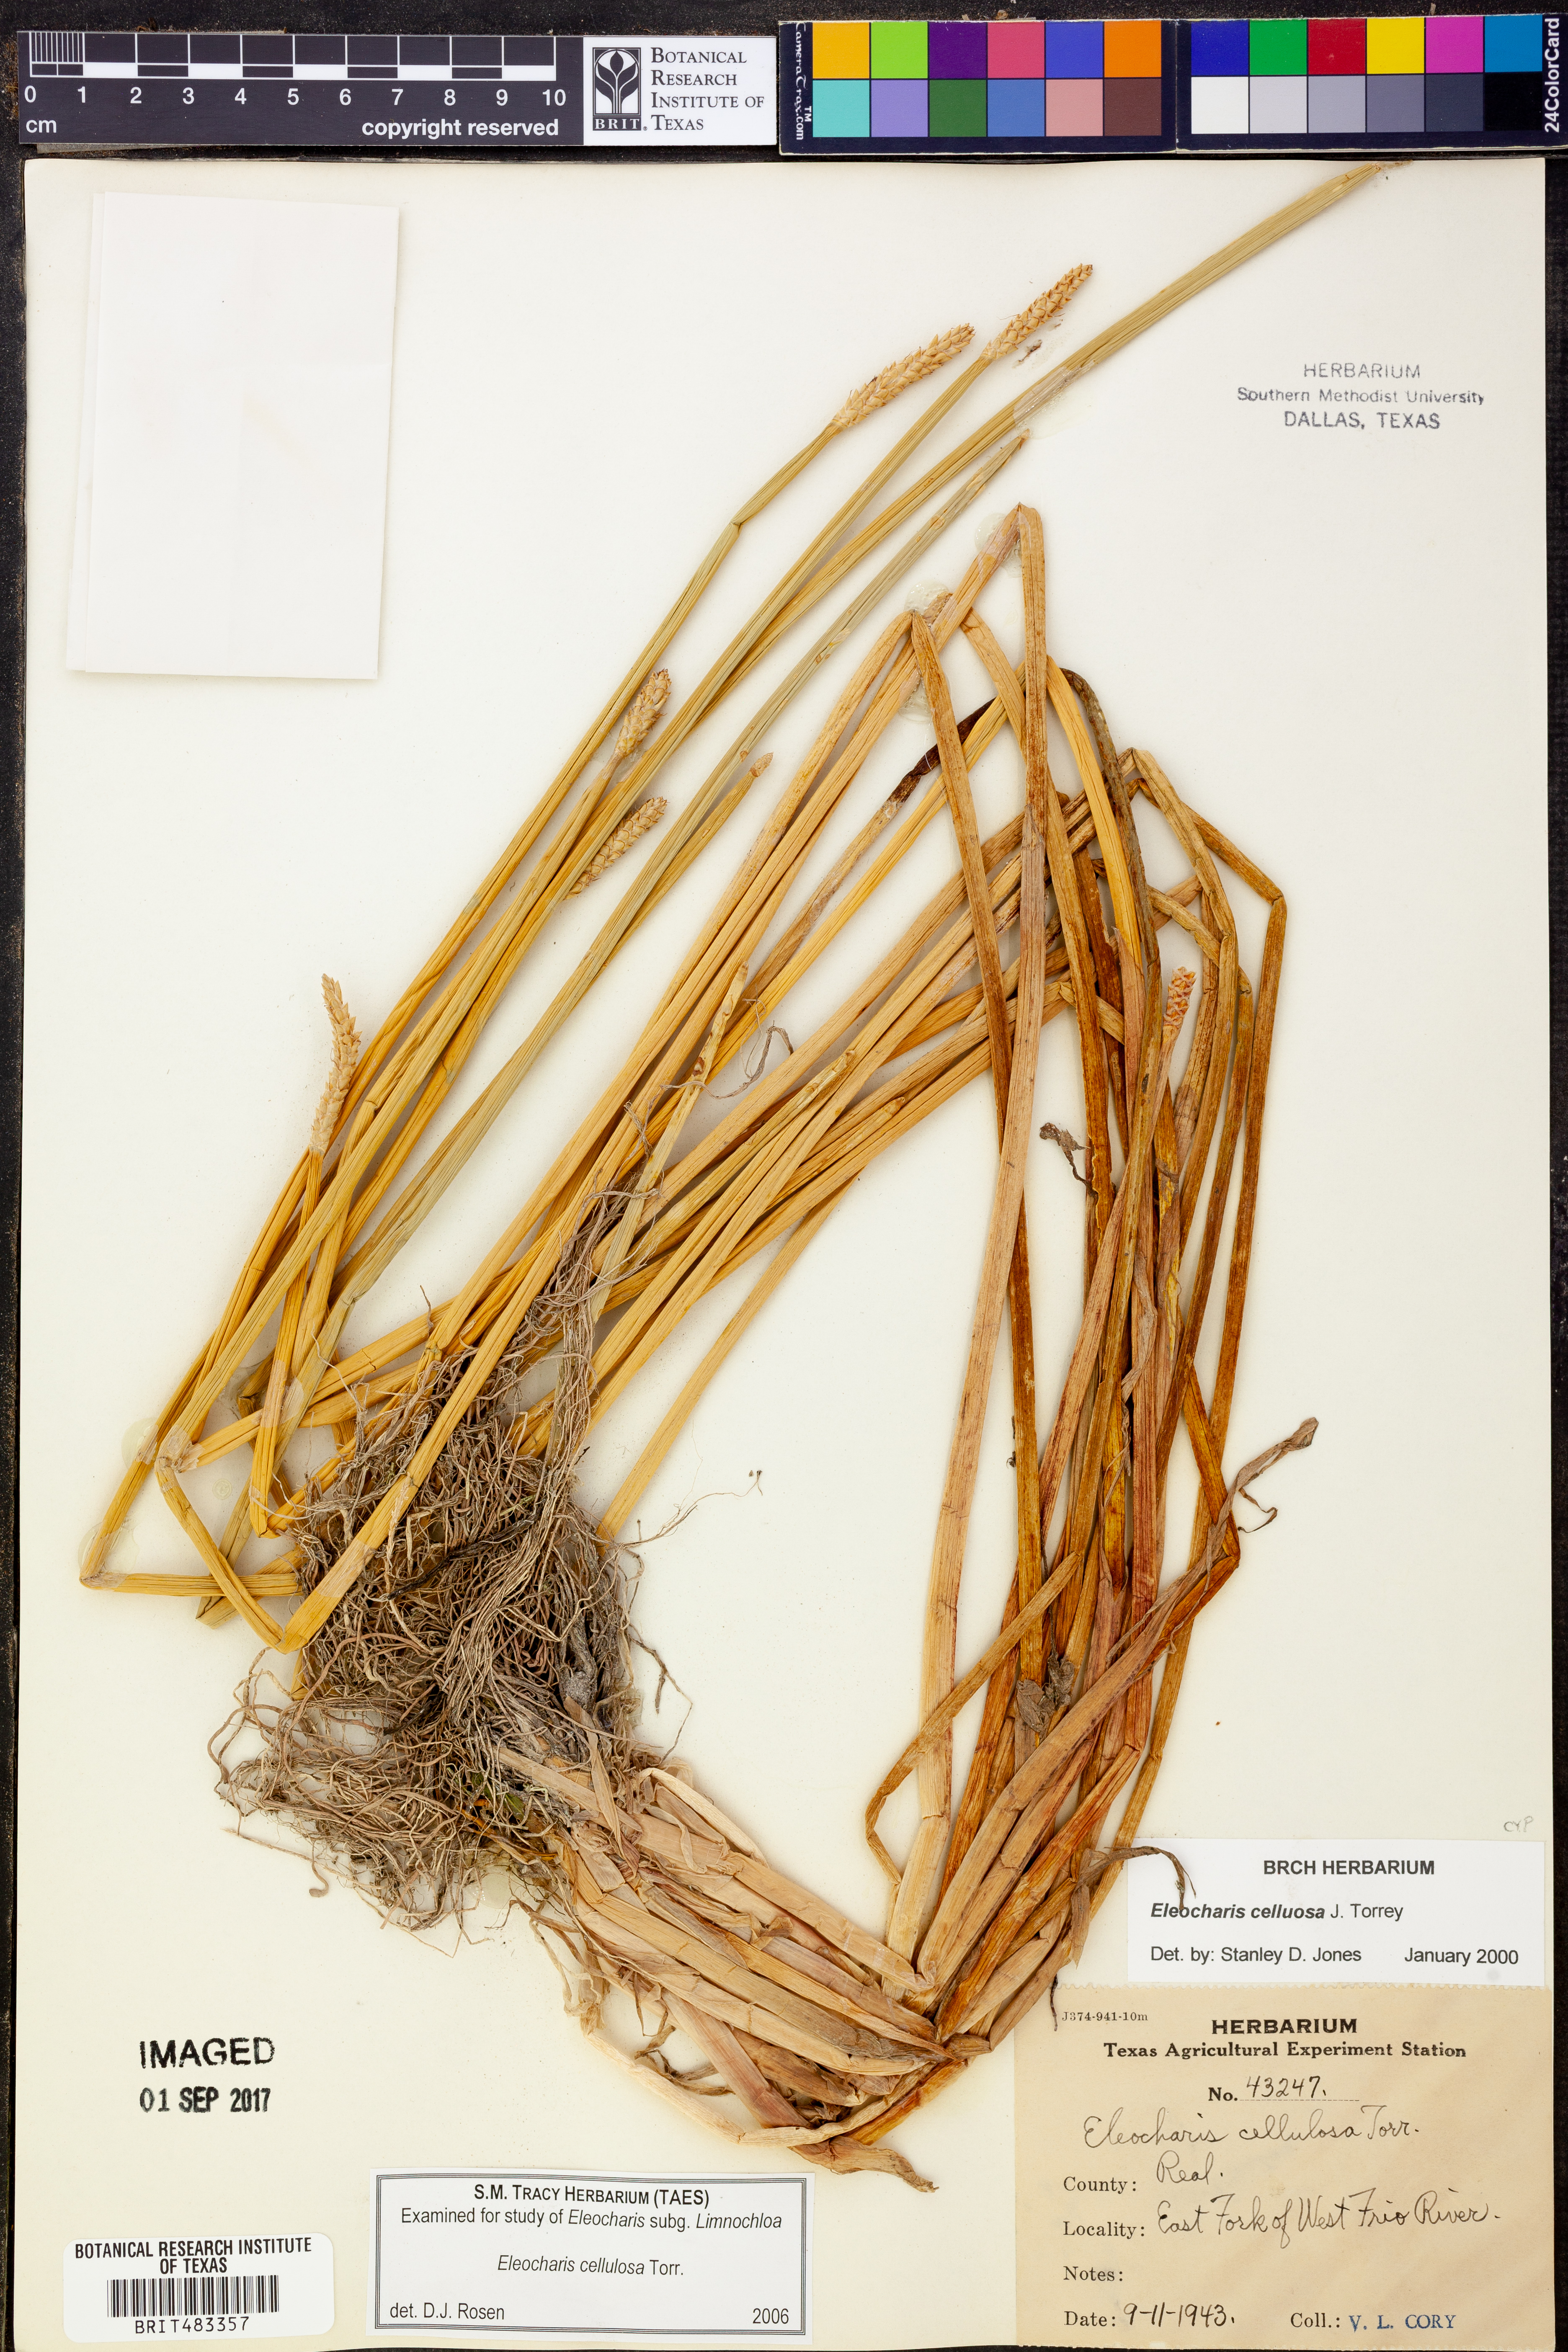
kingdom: Plantae
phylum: Tracheophyta
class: Liliopsida
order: Poales
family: Cyperaceae
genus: Eleocharis
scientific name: Eleocharis cellulosa
